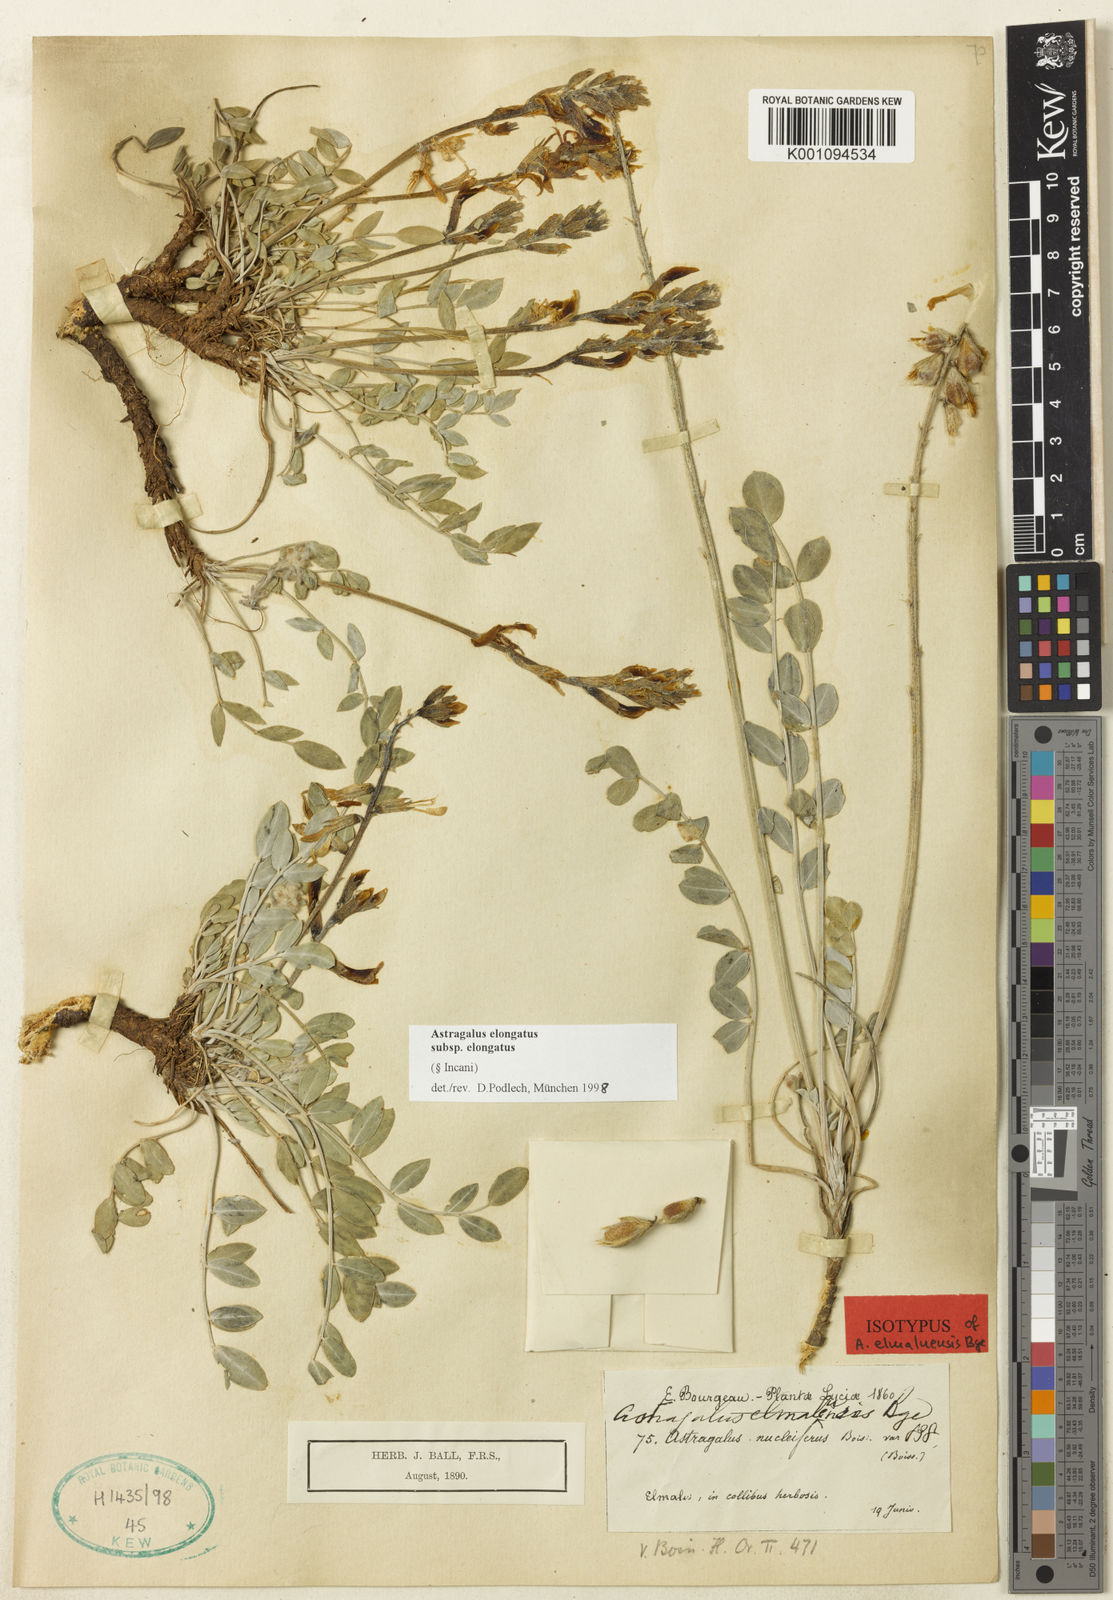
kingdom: Plantae
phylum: Tracheophyta
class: Magnoliopsida
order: Fabales
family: Fabaceae
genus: Astragalus
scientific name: Astragalus elongatus
